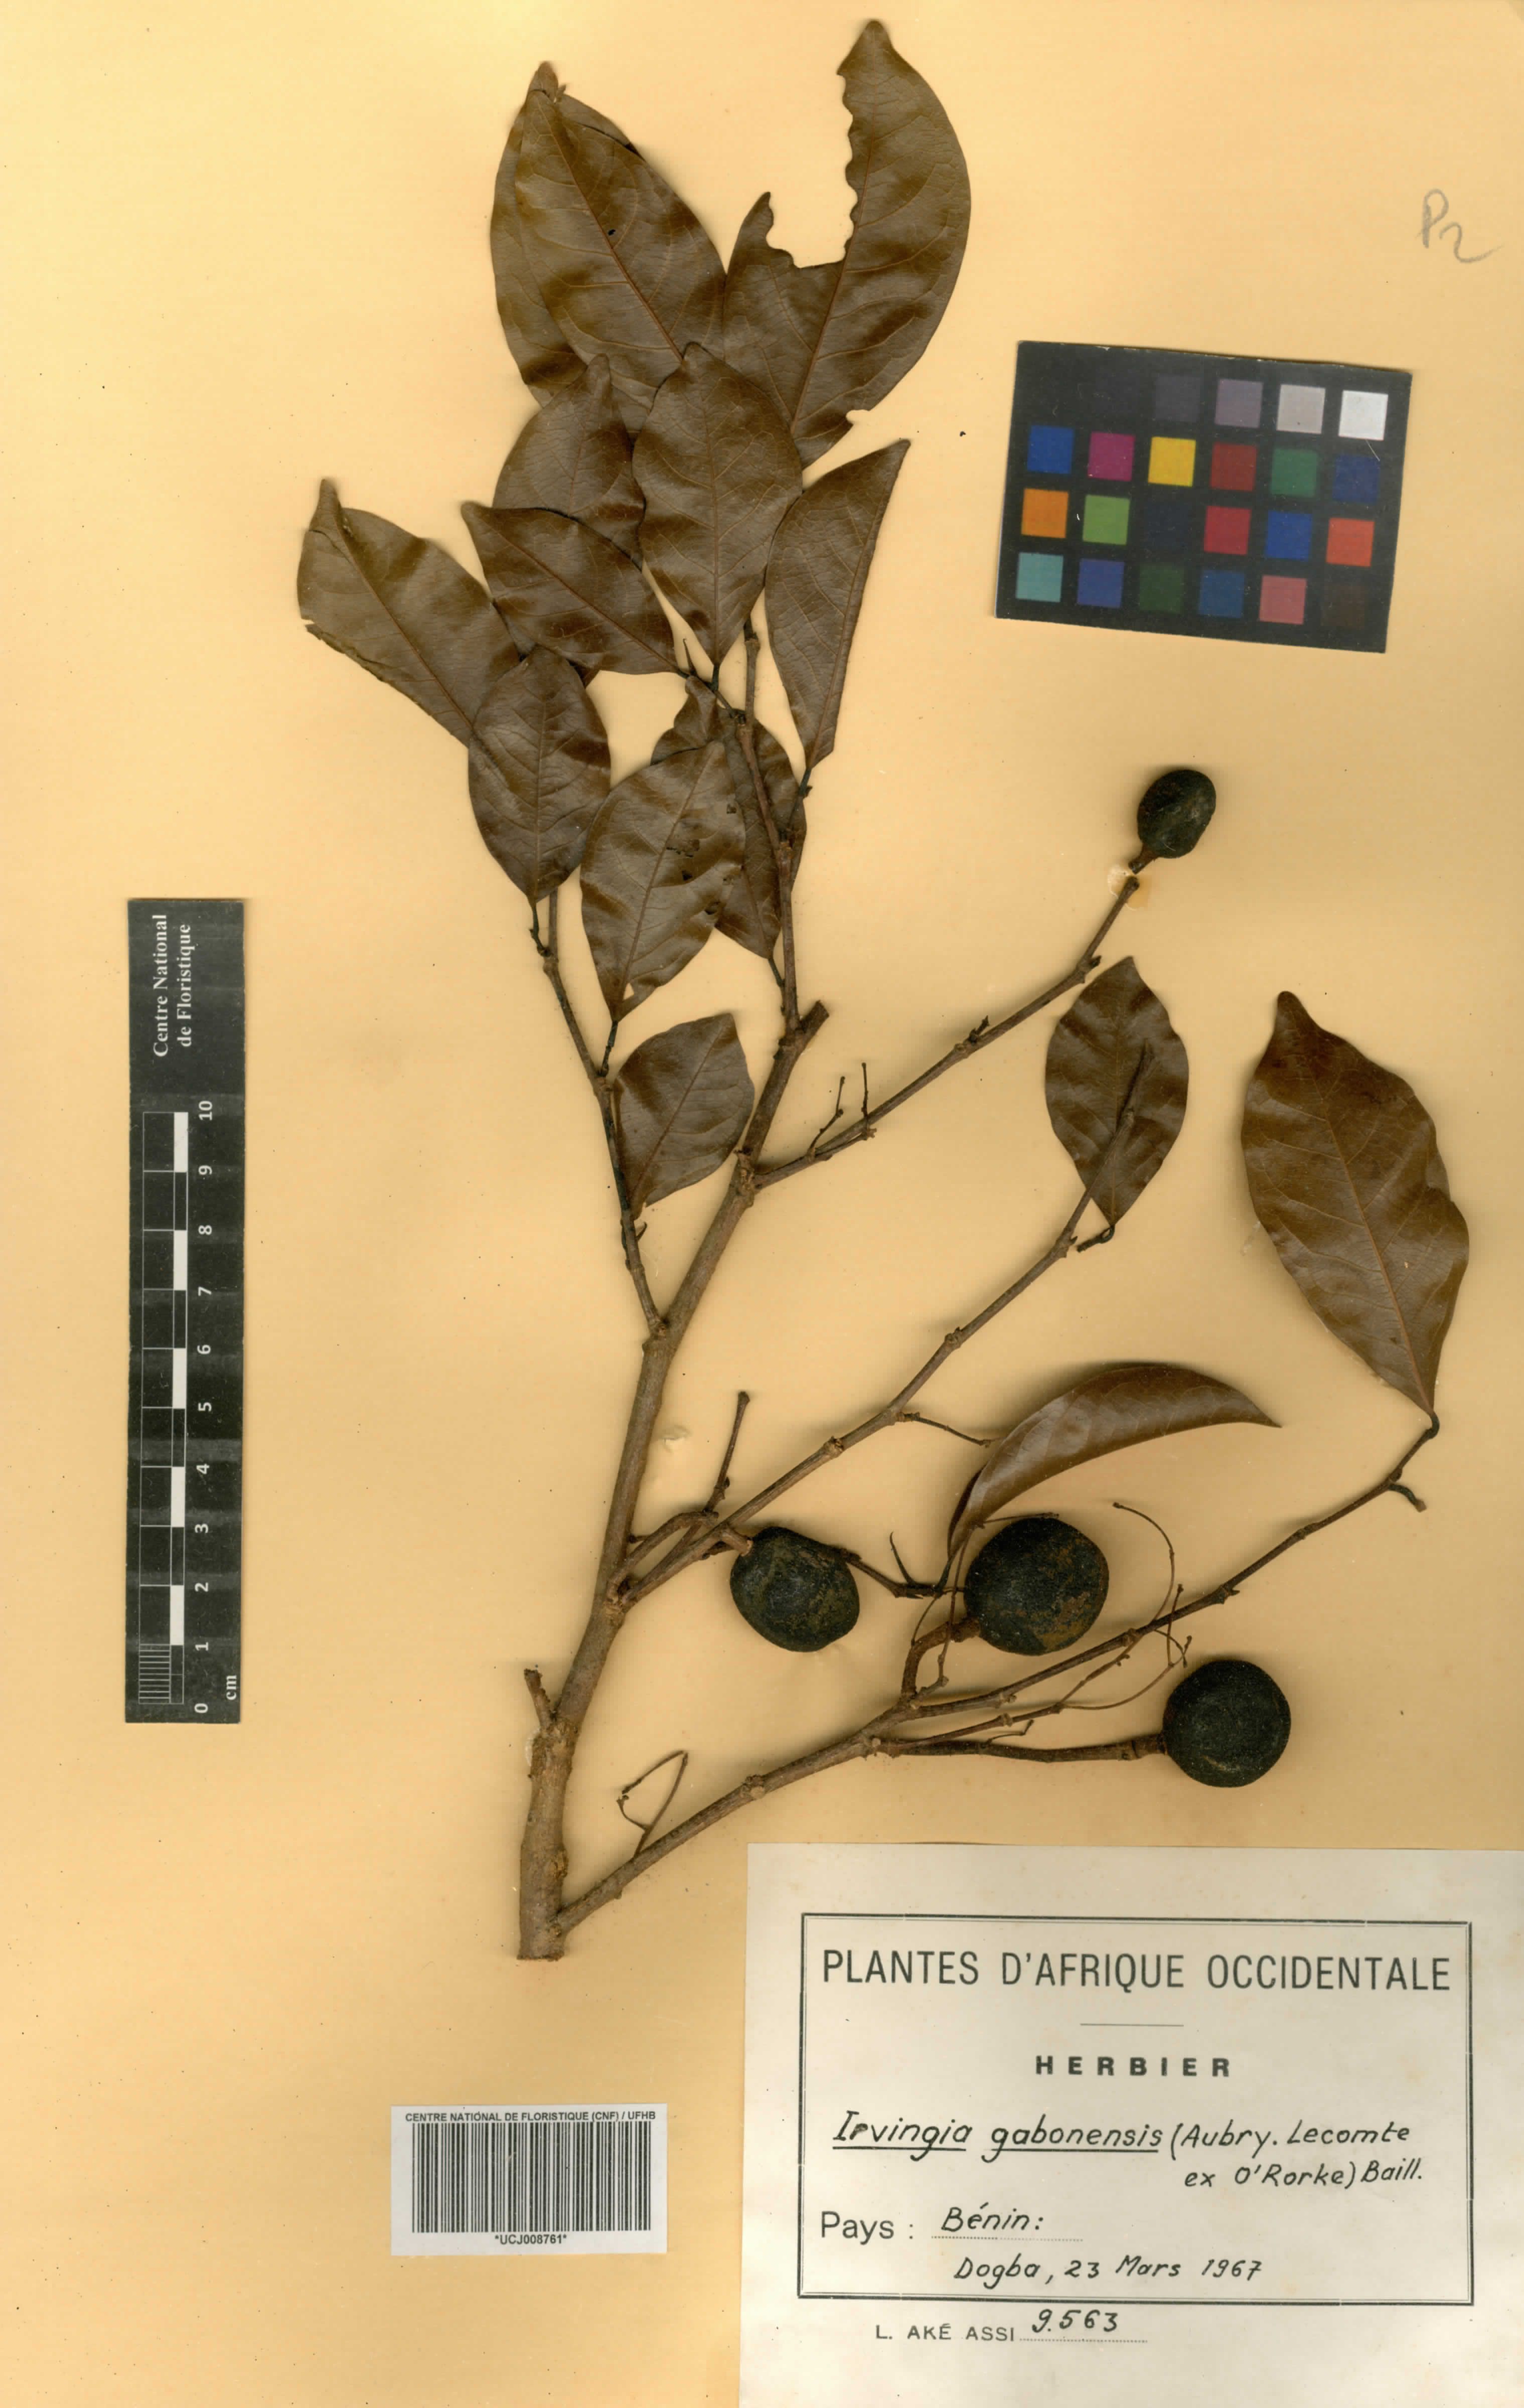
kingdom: Plantae
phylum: Tracheophyta
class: Magnoliopsida
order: Malpighiales
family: Irvingiaceae
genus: Irvingia
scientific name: Irvingia gabonensis
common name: Rainy season bush-mango
